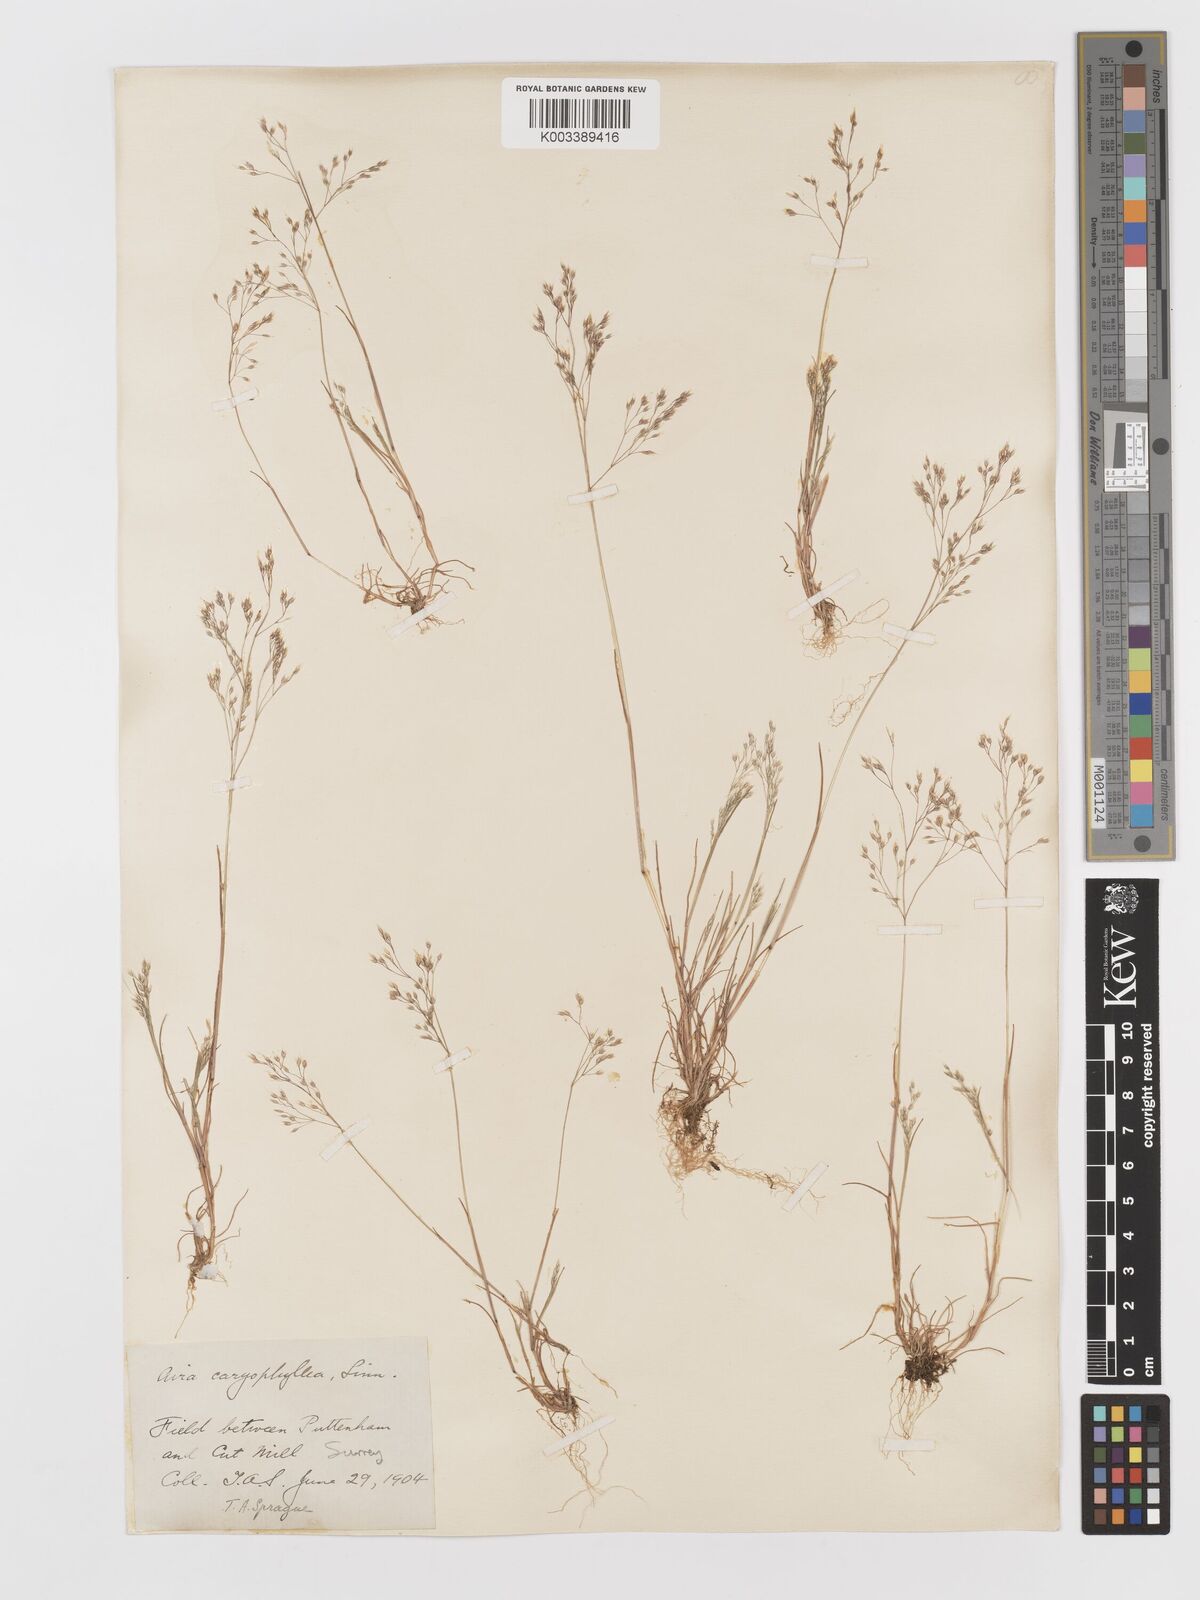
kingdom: Plantae
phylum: Tracheophyta
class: Liliopsida
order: Poales
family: Poaceae
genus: Aira
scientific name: Aira caryophyllea
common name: Silver hairgrass
